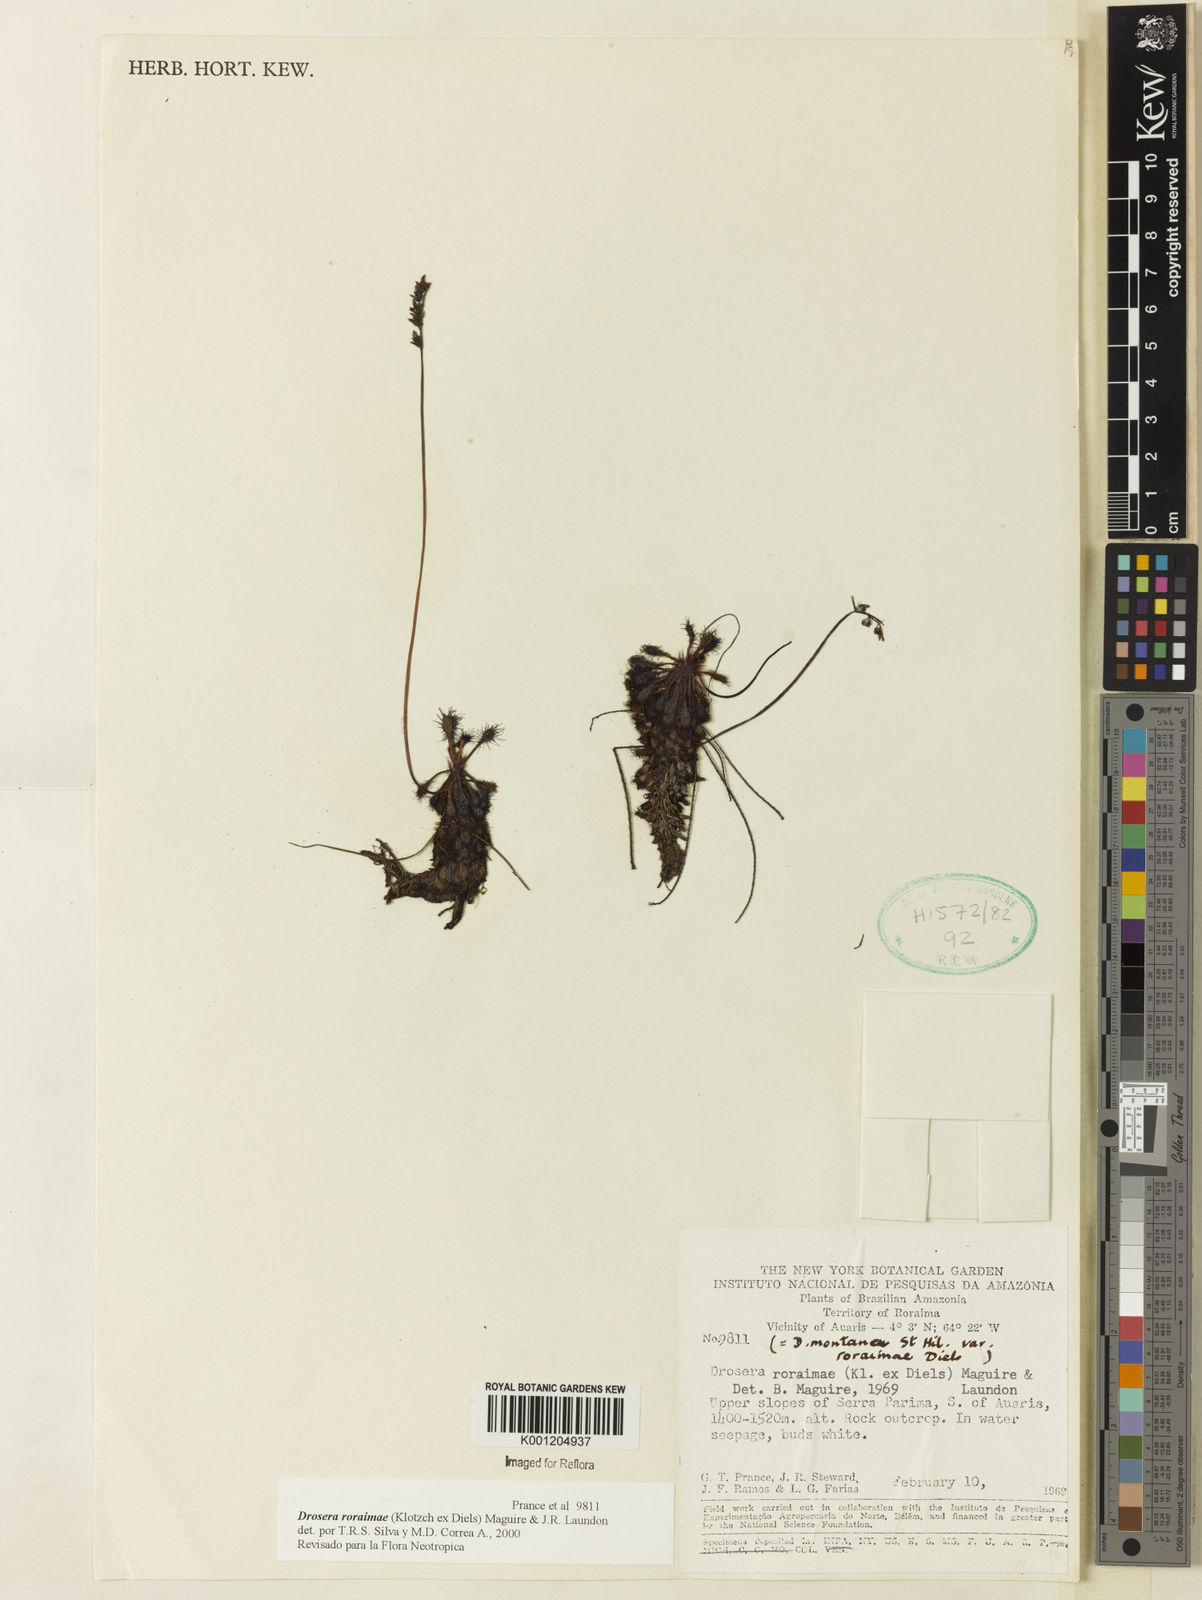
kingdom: Plantae
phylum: Tracheophyta
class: Magnoliopsida
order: Caryophyllales
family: Droseraceae
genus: Drosera
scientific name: Drosera roraimae
